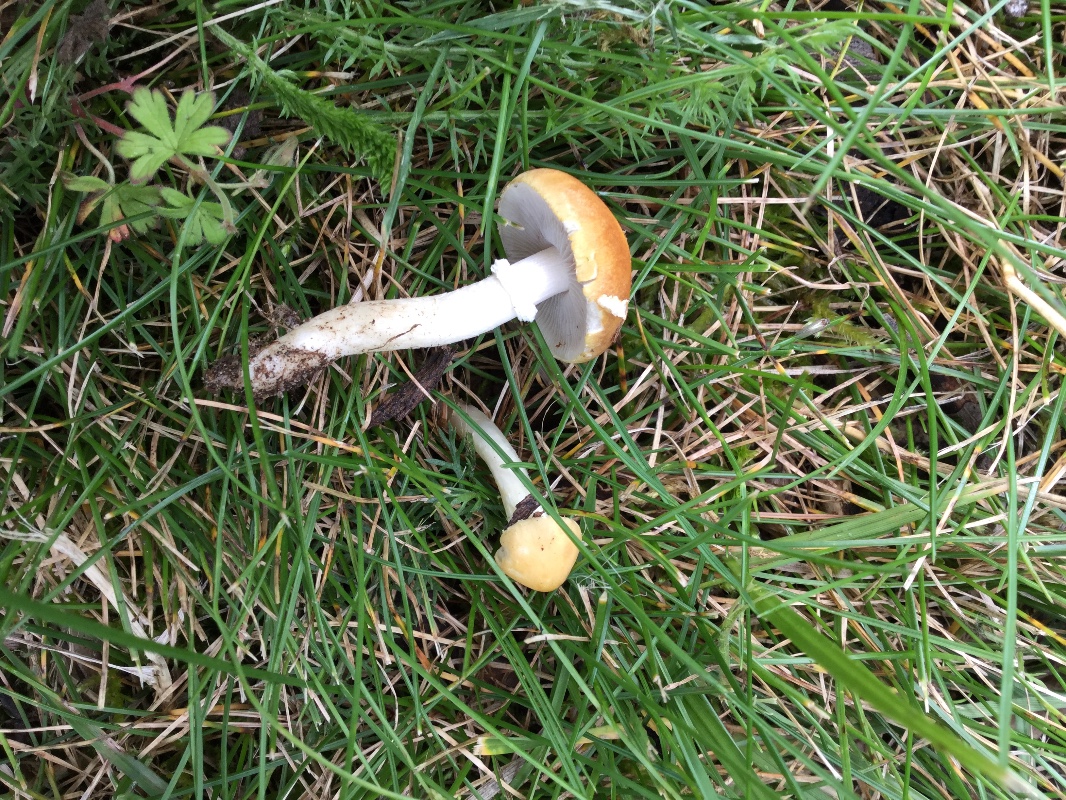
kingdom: Fungi
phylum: Basidiomycota
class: Agaricomycetes
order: Agaricales
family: Hymenogastraceae
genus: Psilocybe
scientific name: Psilocybe coronilla
